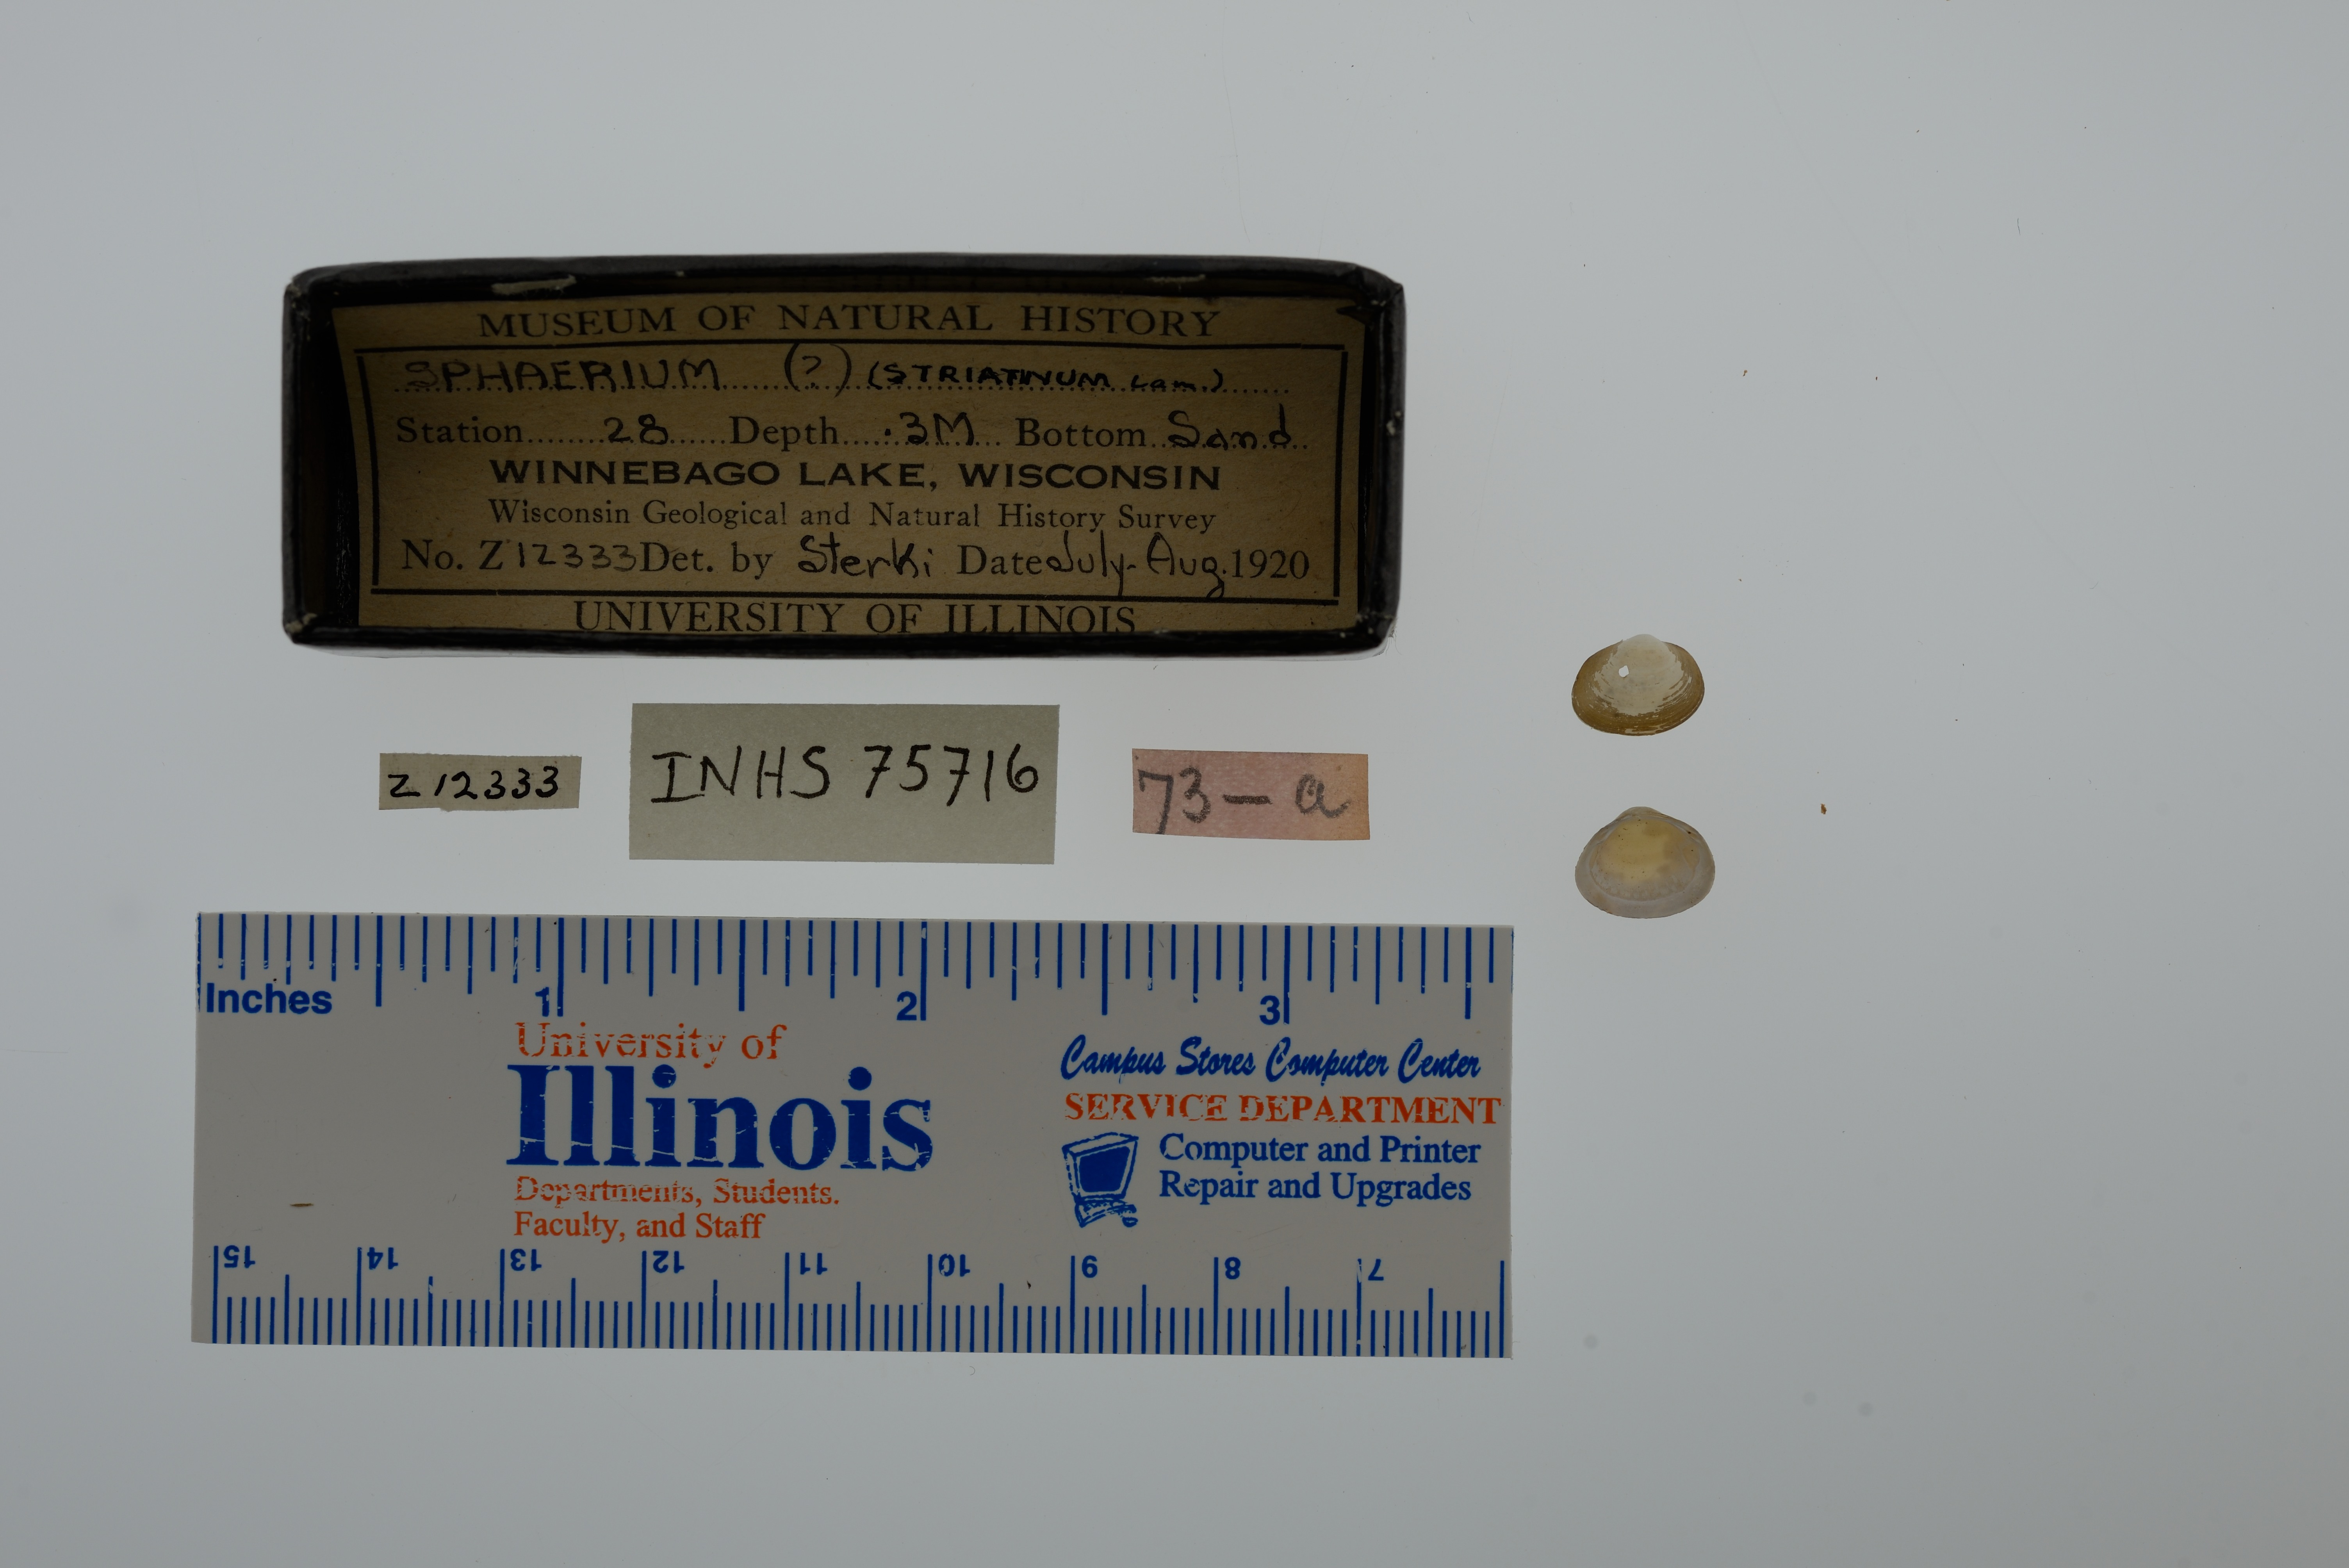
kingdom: Animalia
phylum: Mollusca
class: Bivalvia
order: Sphaeriida
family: Sphaeriidae
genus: Sphaerium
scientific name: Sphaerium striatinum
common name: Striated fingernailclam
